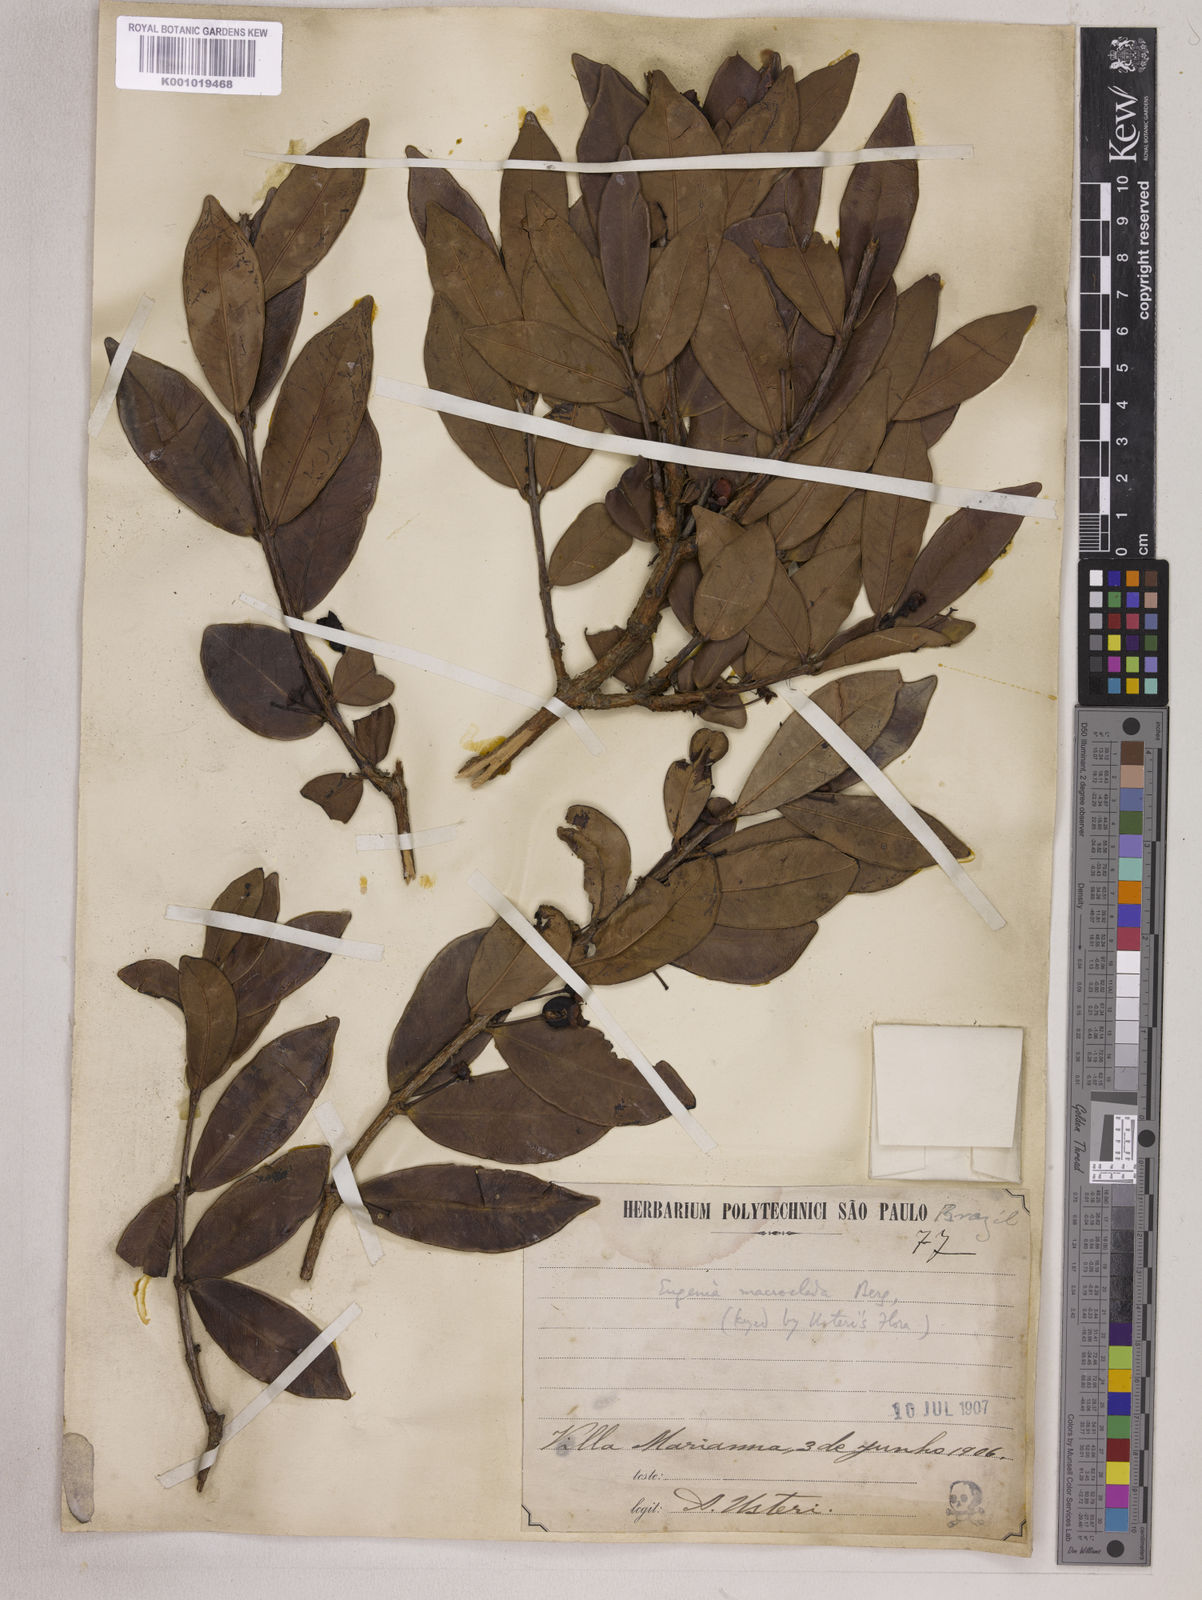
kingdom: Plantae
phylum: Tracheophyta
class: Magnoliopsida
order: Myrtales
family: Myrtaceae
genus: Eugenia
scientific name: Eugenia punicifolia
